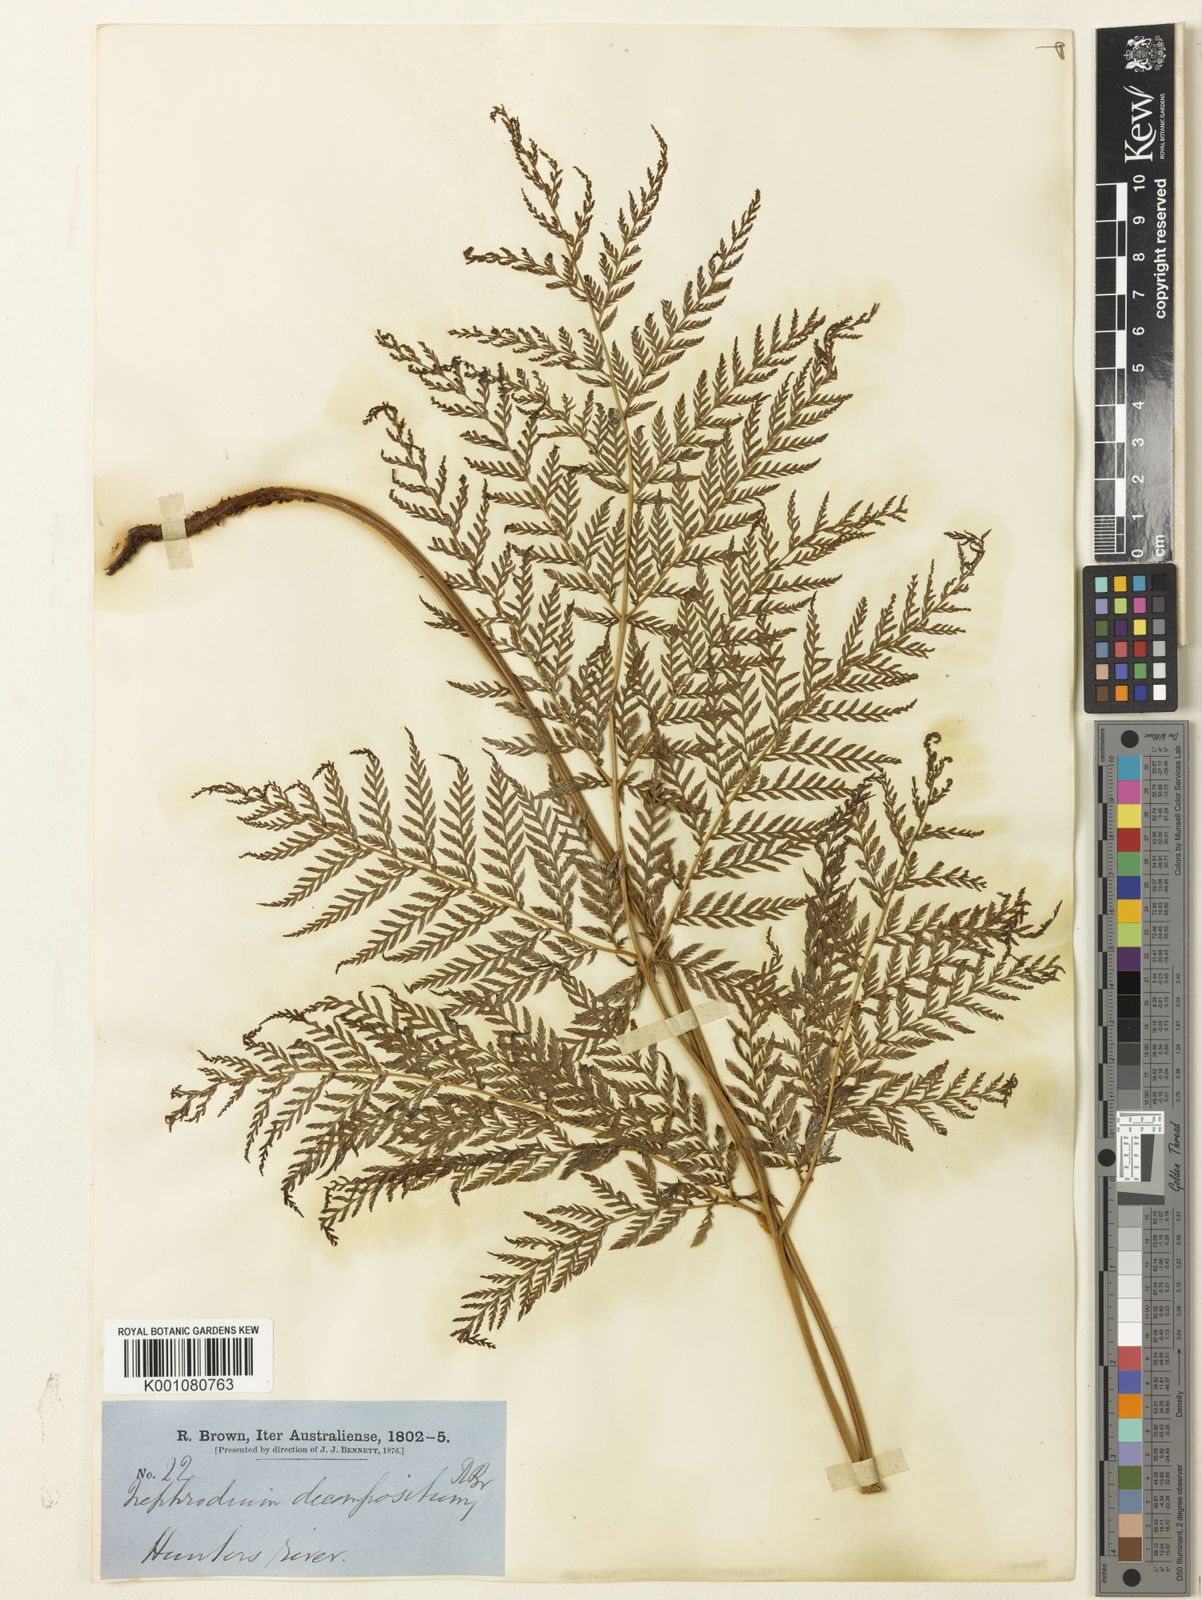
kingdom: Plantae
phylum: Tracheophyta
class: Polypodiopsida
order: Polypodiales
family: Dryopteridaceae
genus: Lastreopsis
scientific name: Lastreopsis decomposita
